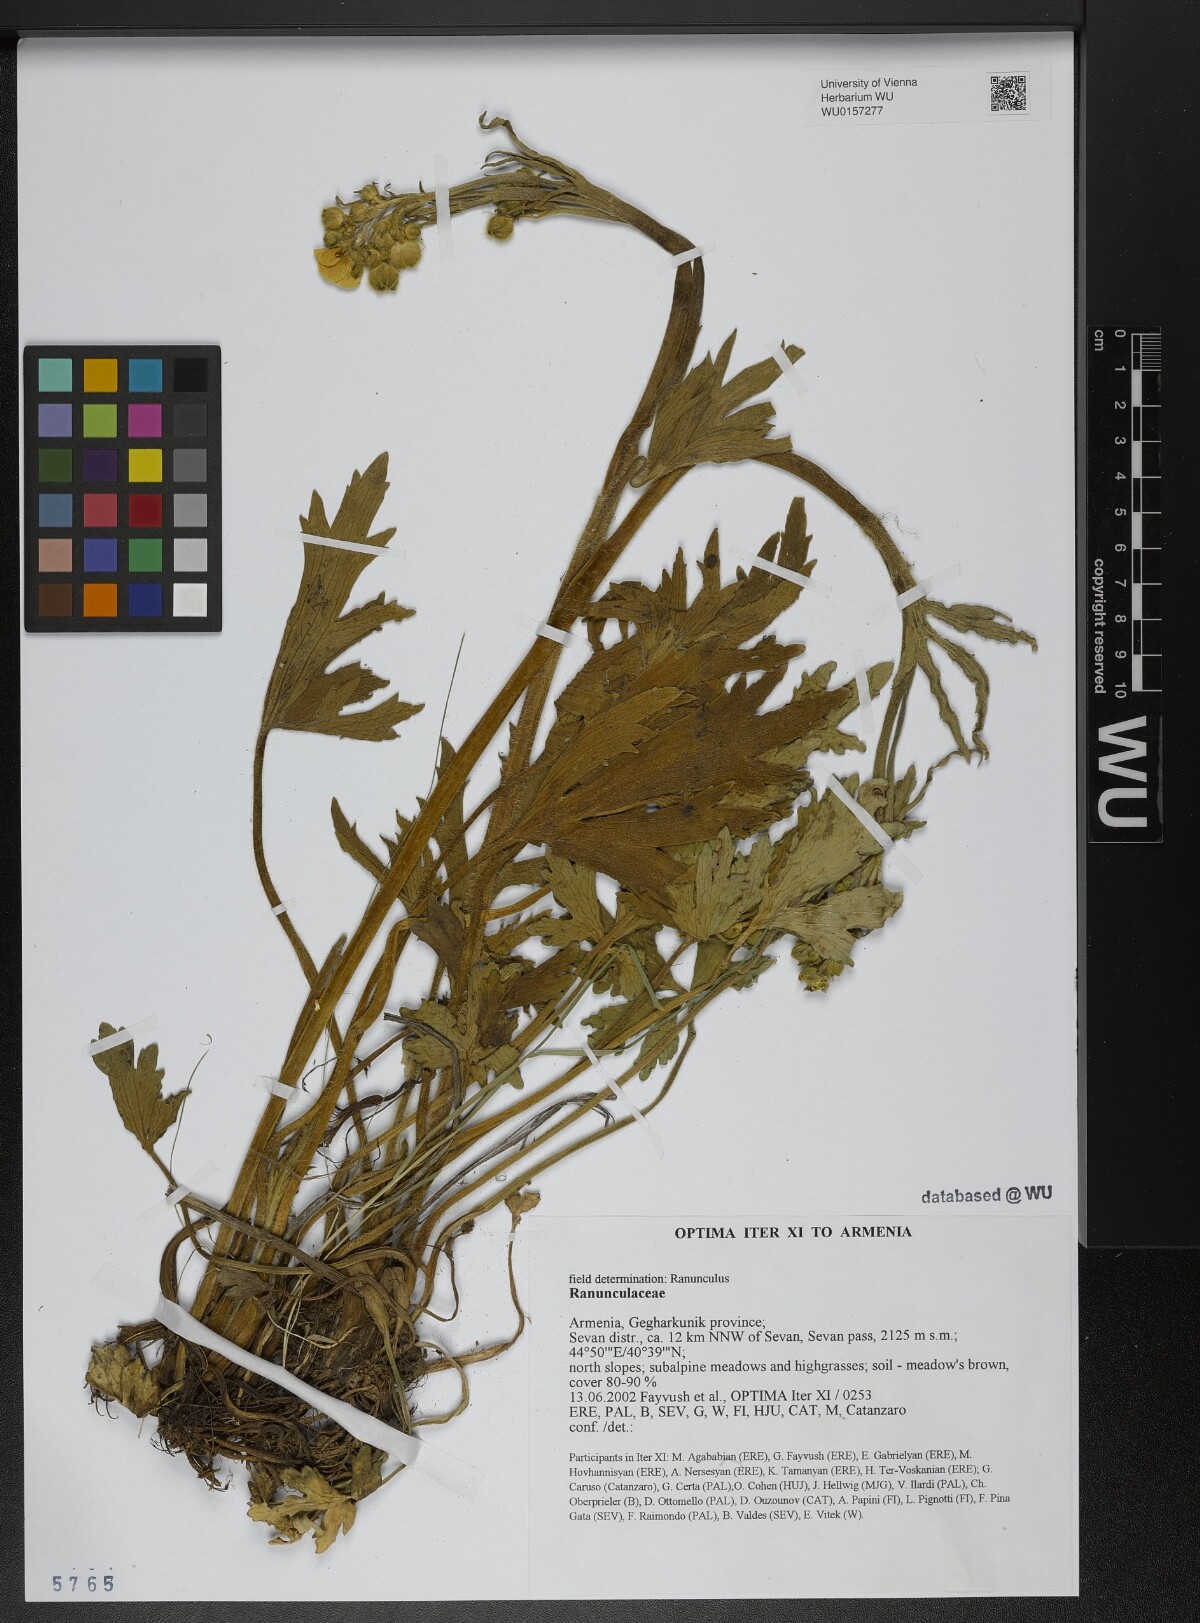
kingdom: Plantae
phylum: Tracheophyta
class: Magnoliopsida
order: Ranunculales
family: Ranunculaceae
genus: Ranunculus
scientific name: Ranunculus
